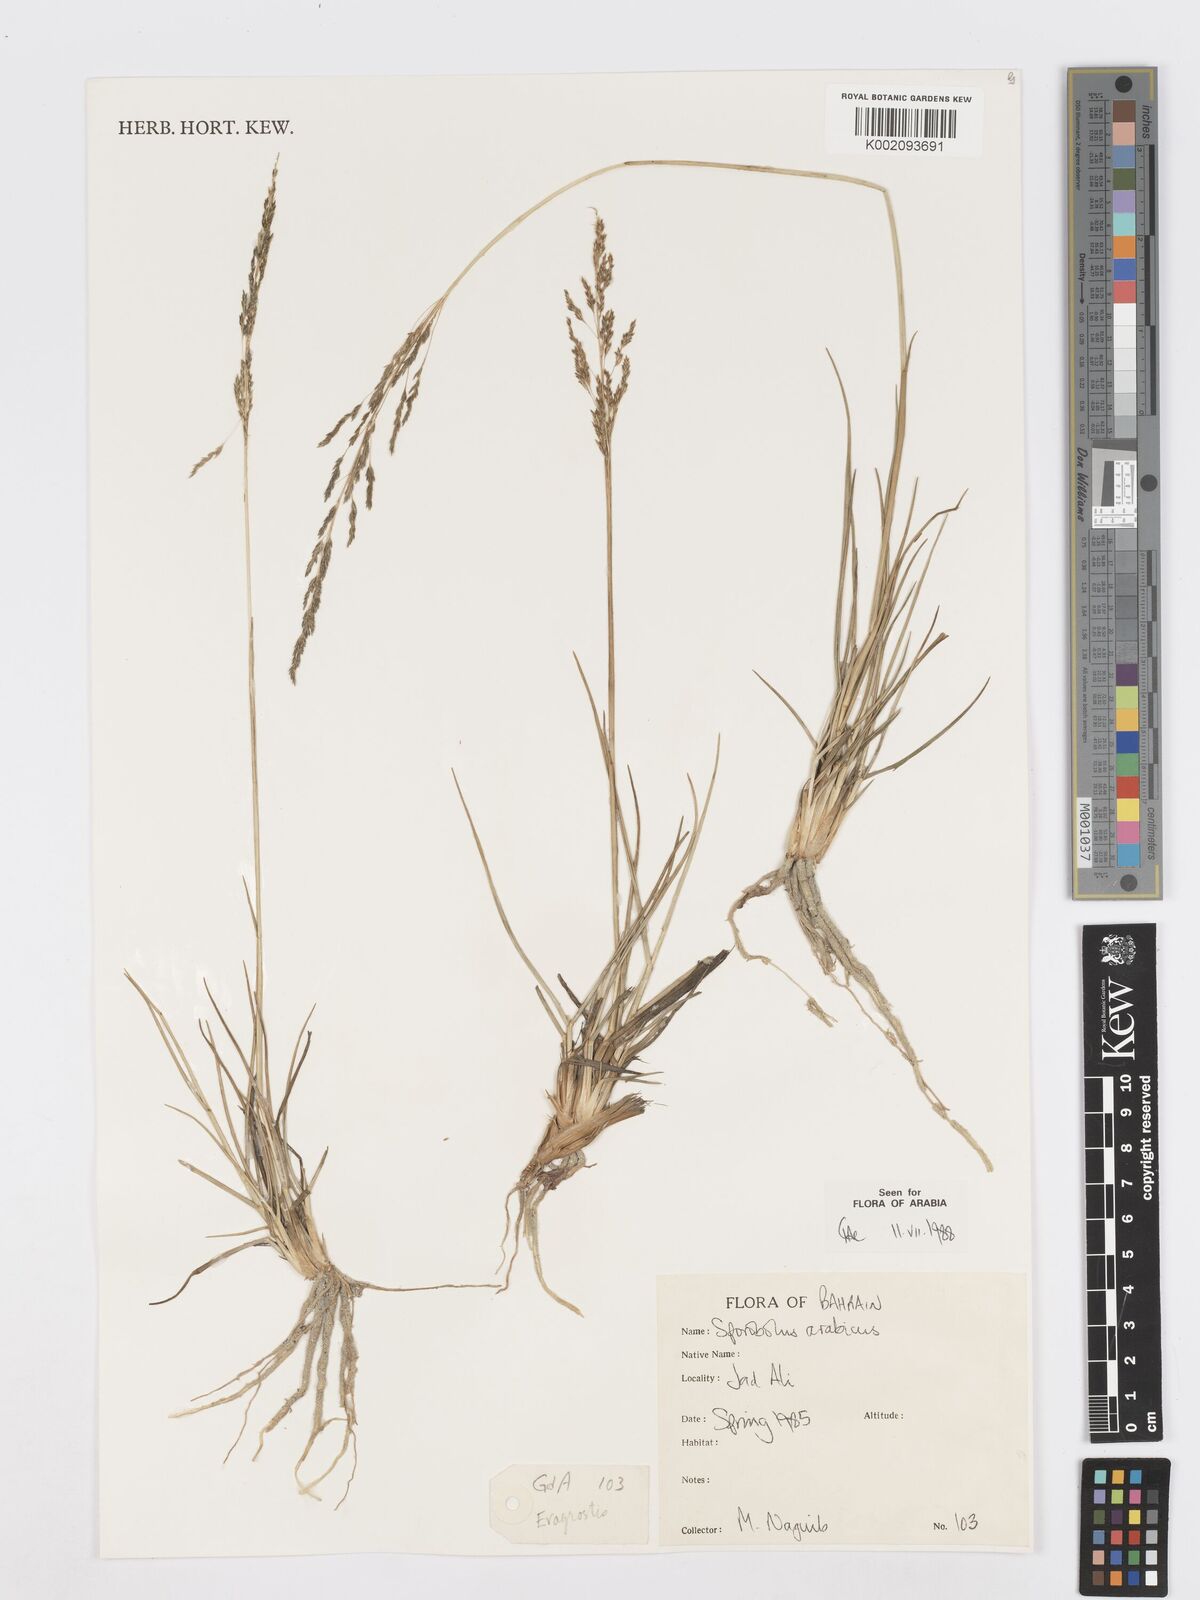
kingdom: Plantae
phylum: Tracheophyta
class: Liliopsida
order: Poales
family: Poaceae
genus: Sporobolus
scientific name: Sporobolus ioclados
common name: Pan dropseed
